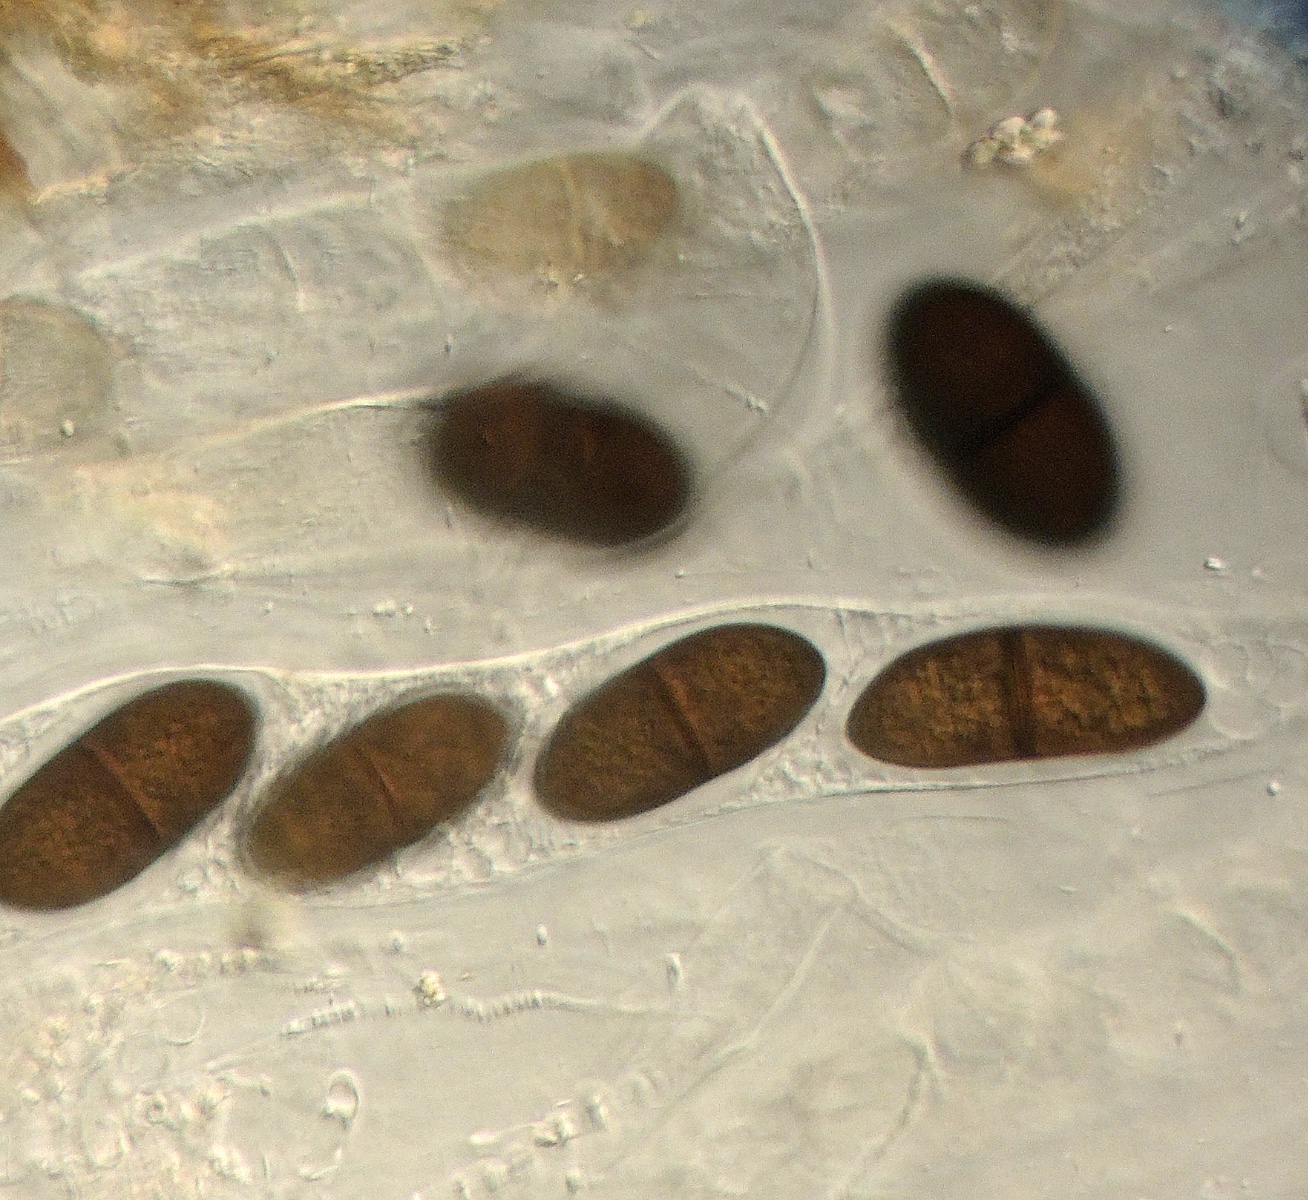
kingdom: Fungi
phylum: Ascomycota
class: Dothideomycetes
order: Pleosporales
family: Delitschiaceae
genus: Delitschia
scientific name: Delitschia winteri
